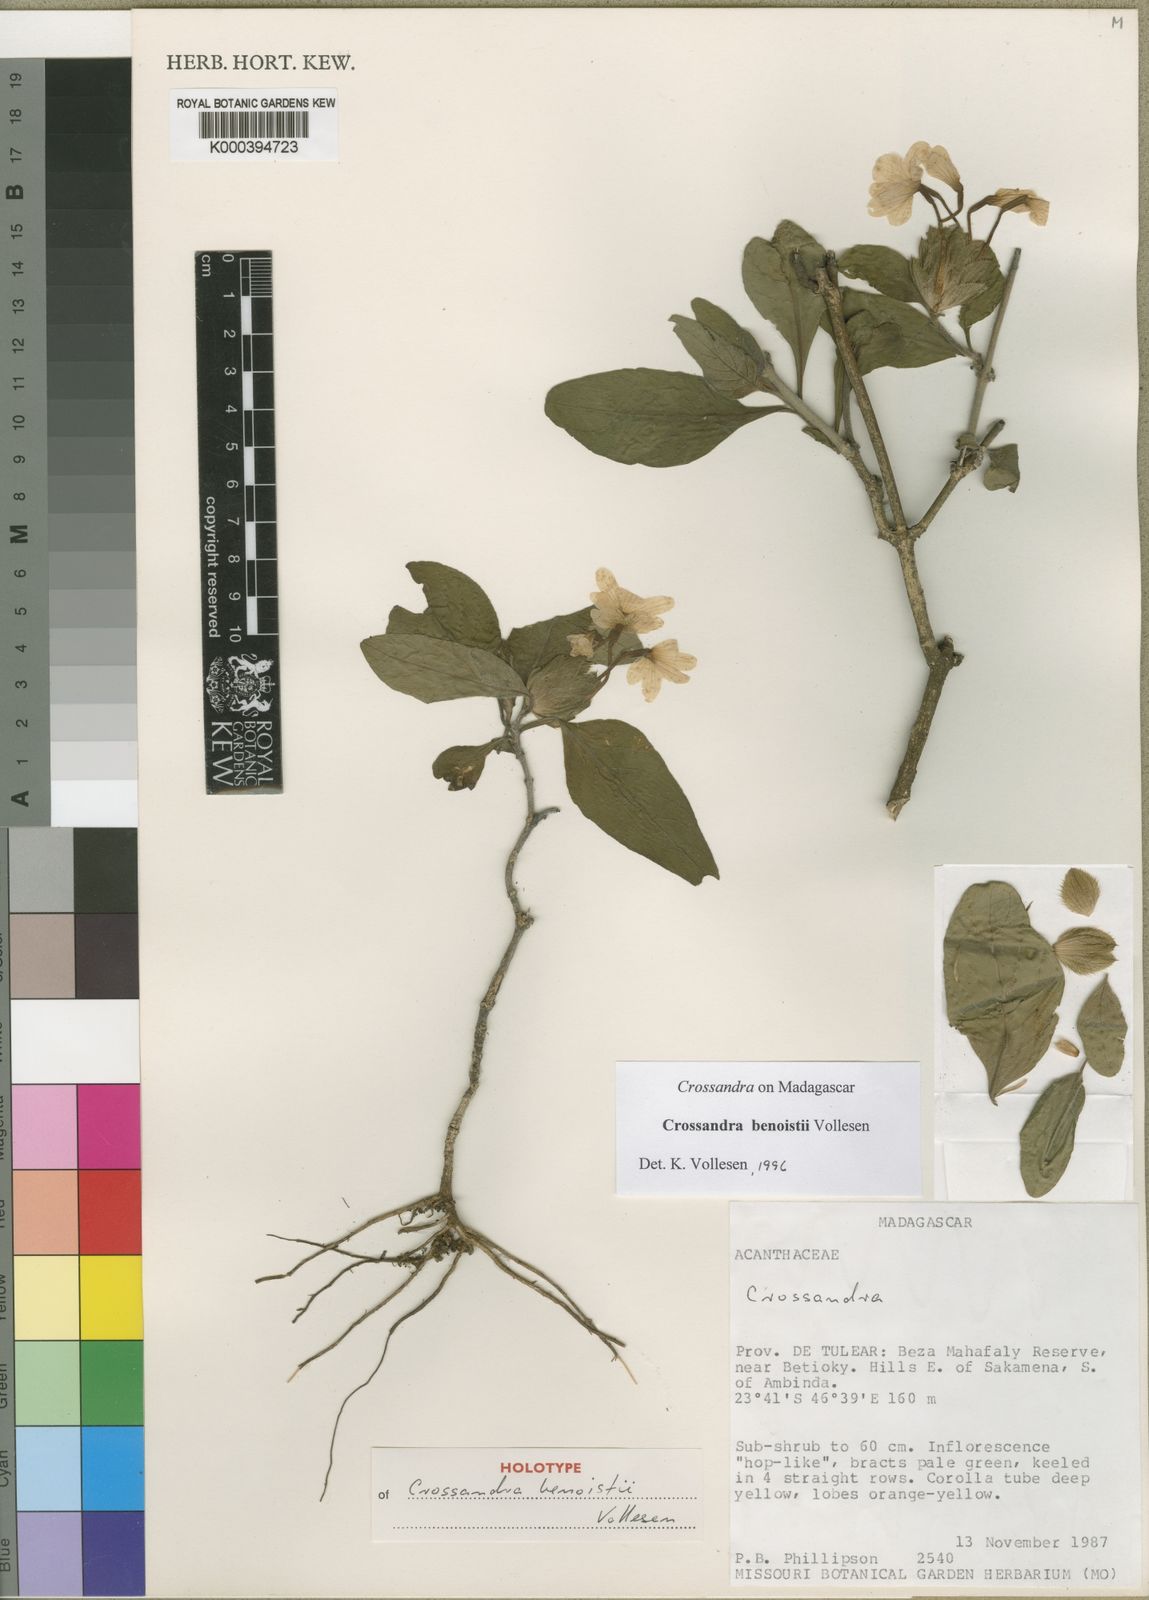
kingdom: Plantae
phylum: Tracheophyta
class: Magnoliopsida
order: Lamiales
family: Acanthaceae
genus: Crossandra
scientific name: Crossandra benoistii
